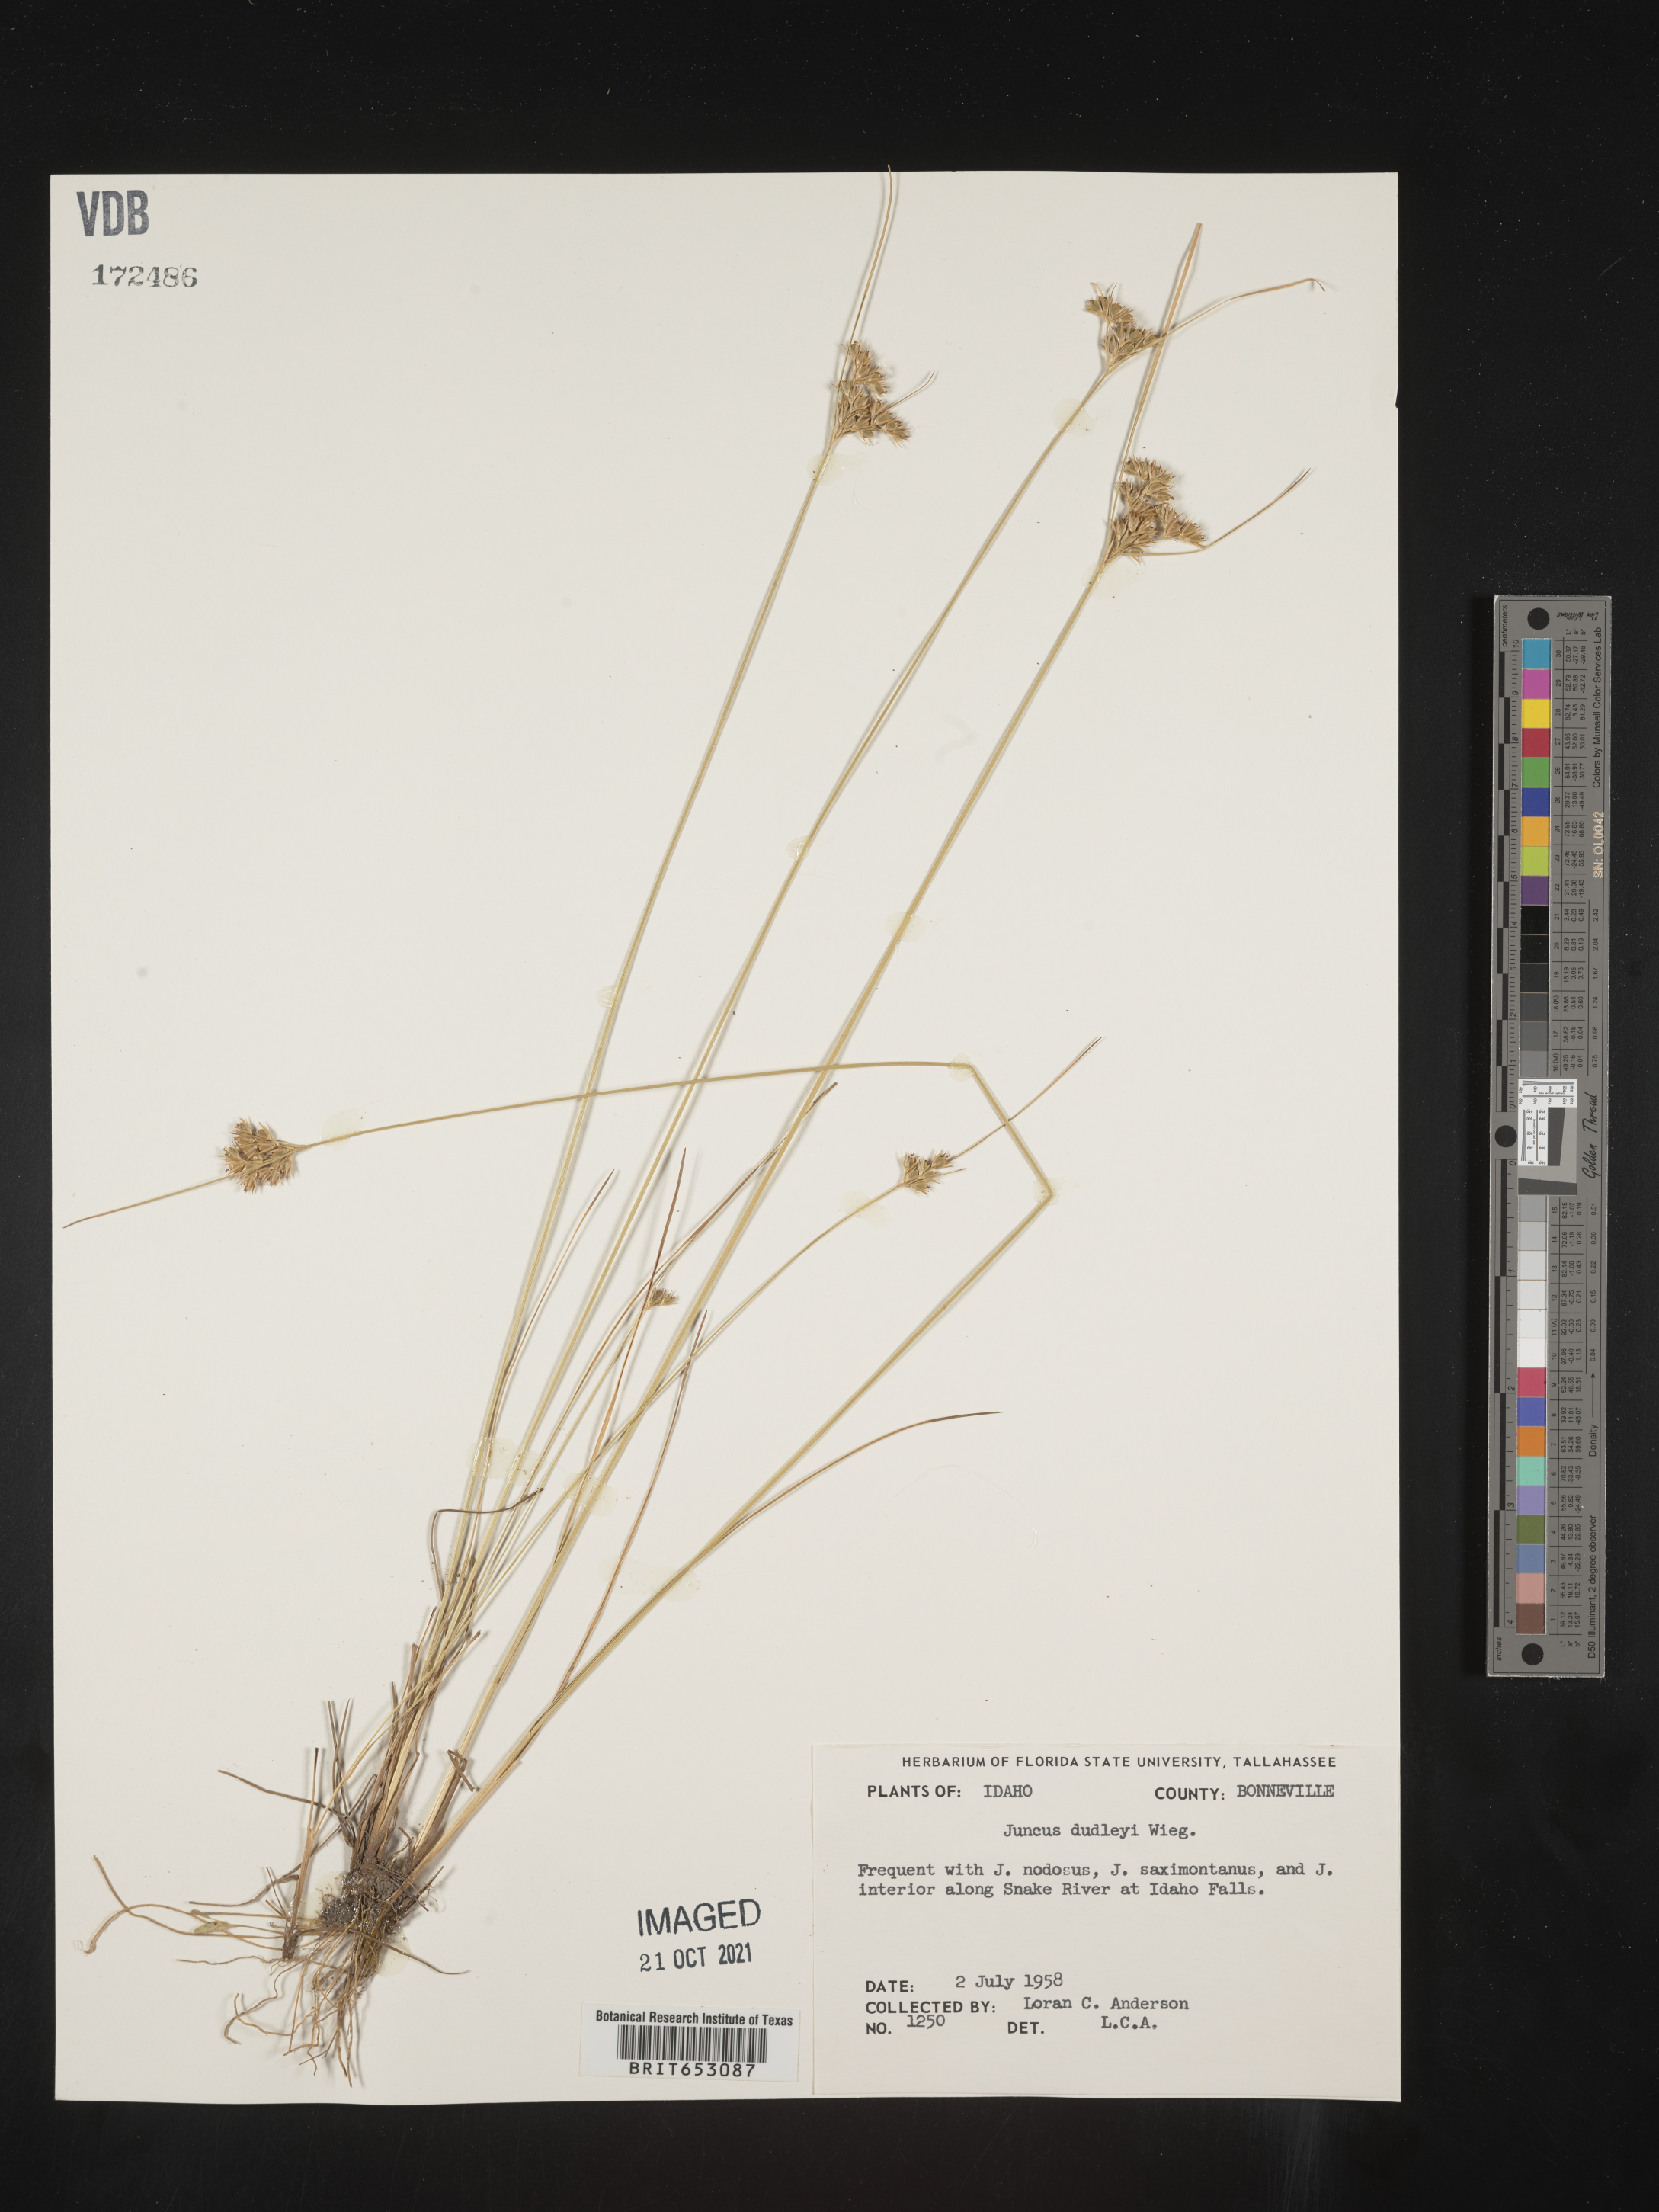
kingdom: Plantae
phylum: Tracheophyta
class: Liliopsida
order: Poales
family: Juncaceae
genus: Juncus
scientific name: Juncus dudleyi
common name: Dudley's rush
